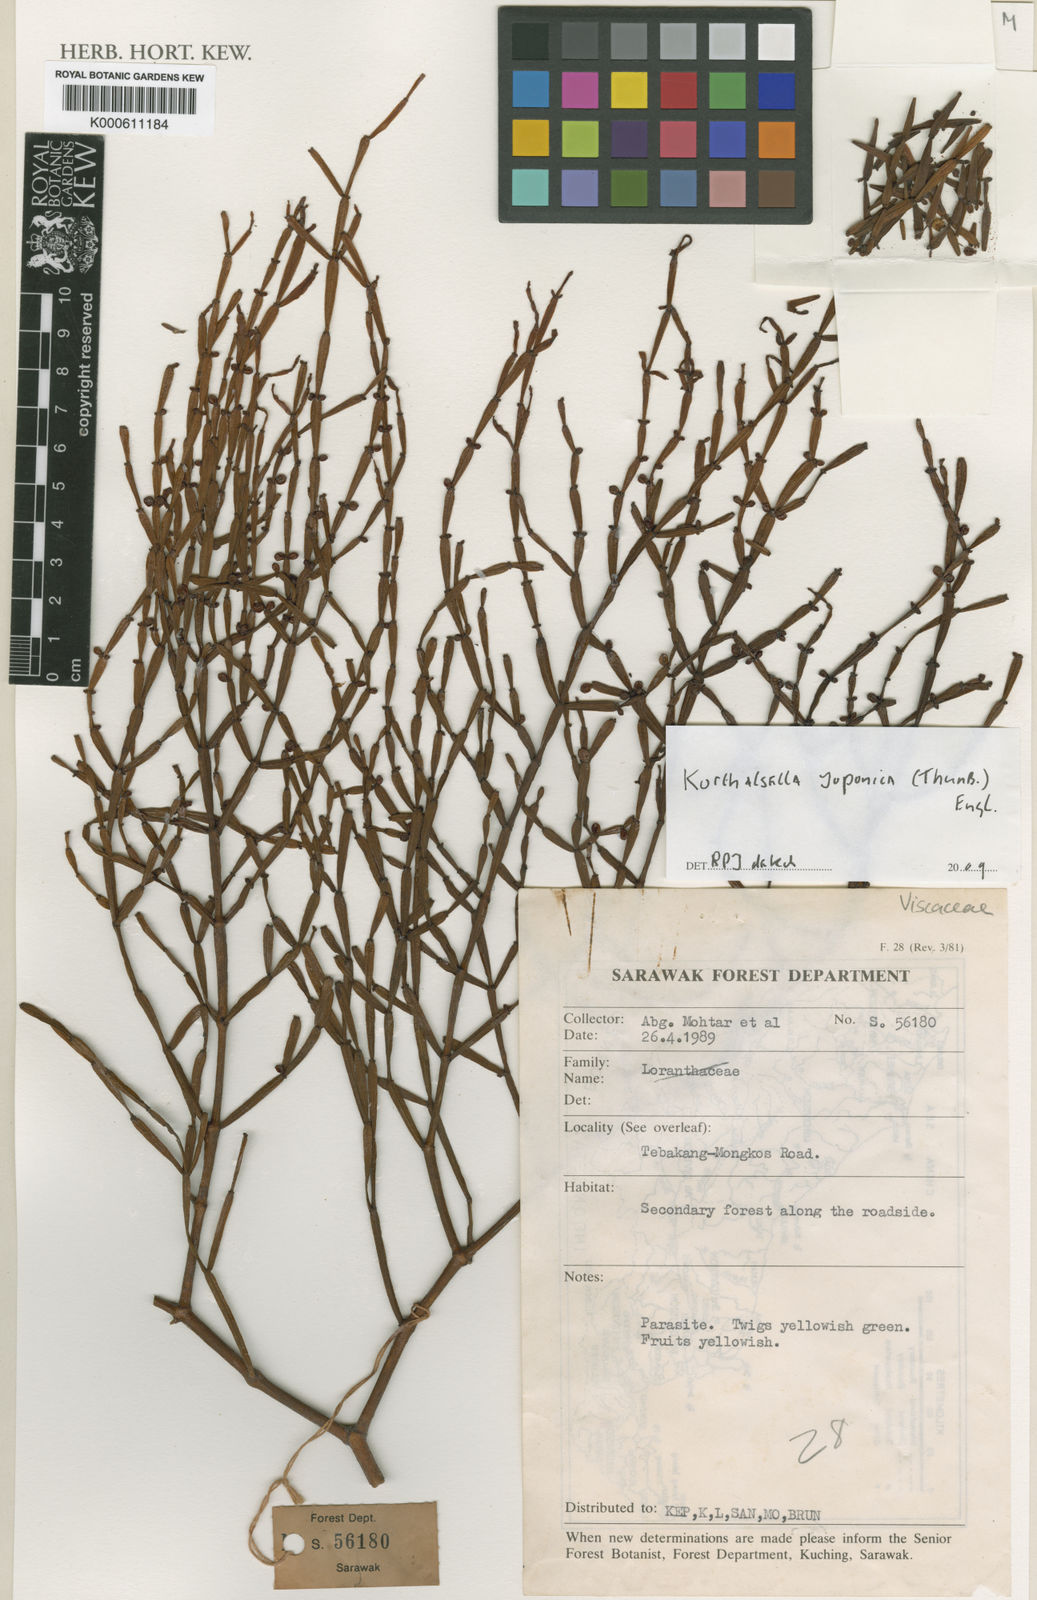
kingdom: Plantae
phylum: Tracheophyta
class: Magnoliopsida
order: Santalales
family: Viscaceae
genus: Korthalsella
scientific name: Korthalsella japonica
